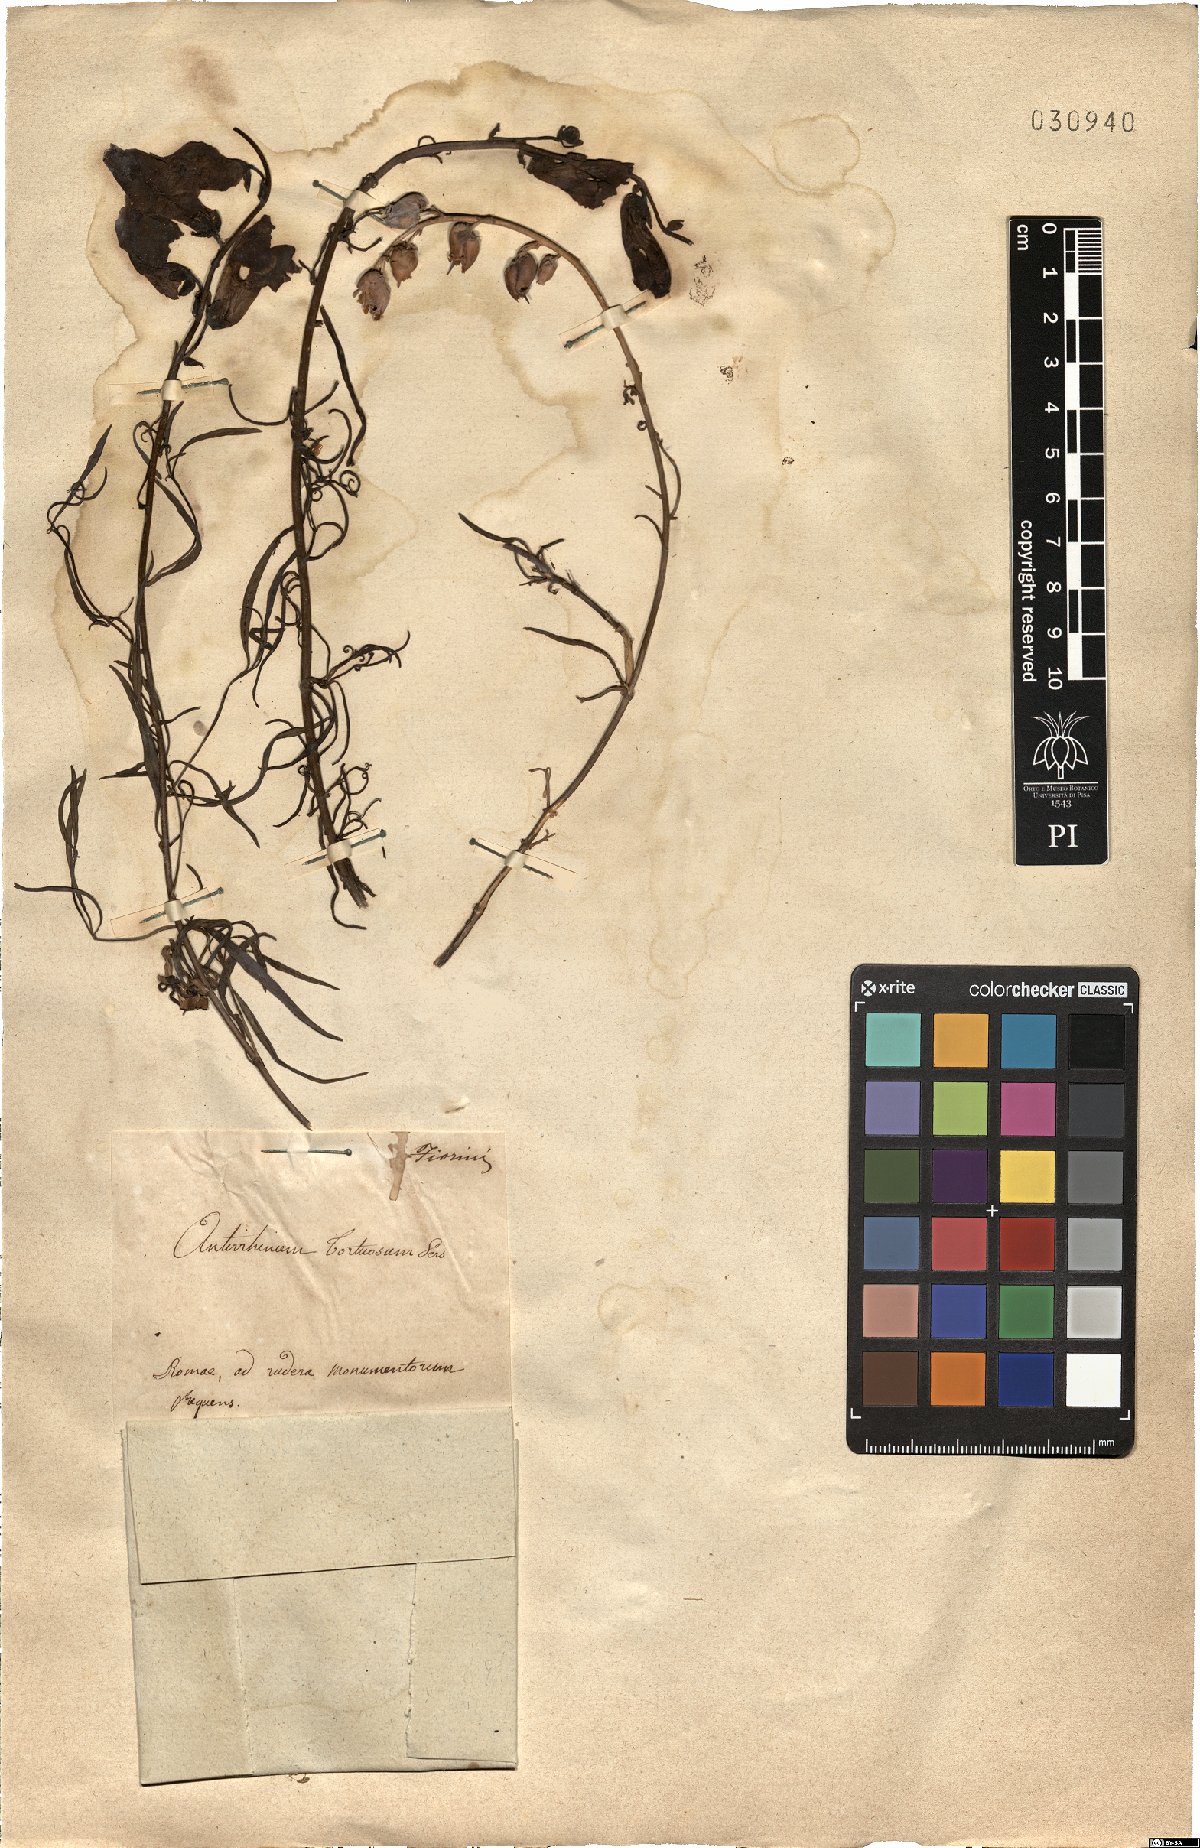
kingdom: Plantae
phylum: Tracheophyta
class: Magnoliopsida
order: Lamiales
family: Plantaginaceae
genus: Antirrhinum
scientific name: Antirrhinum tortuosum
